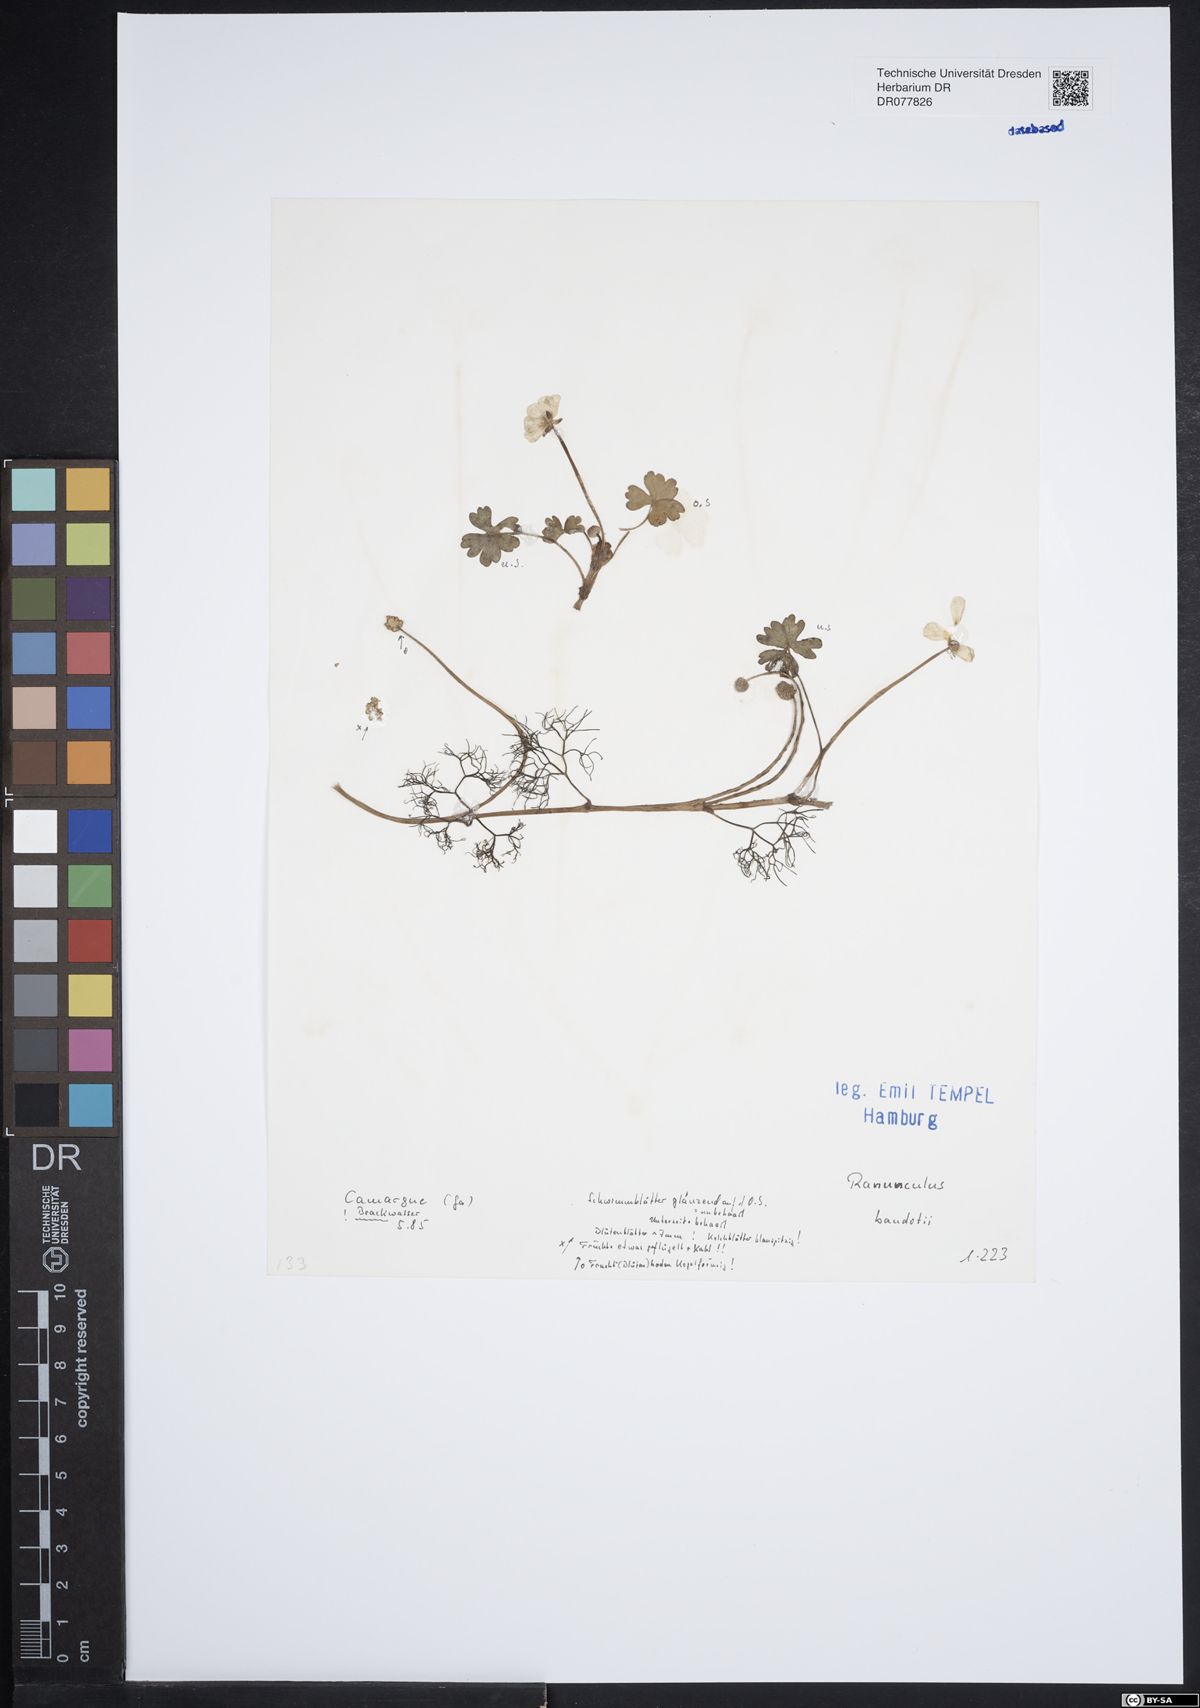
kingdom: Plantae
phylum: Tracheophyta
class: Magnoliopsida
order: Ranunculales
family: Ranunculaceae
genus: Ranunculus
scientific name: Ranunculus peltatus
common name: Pond water-crowfoot
